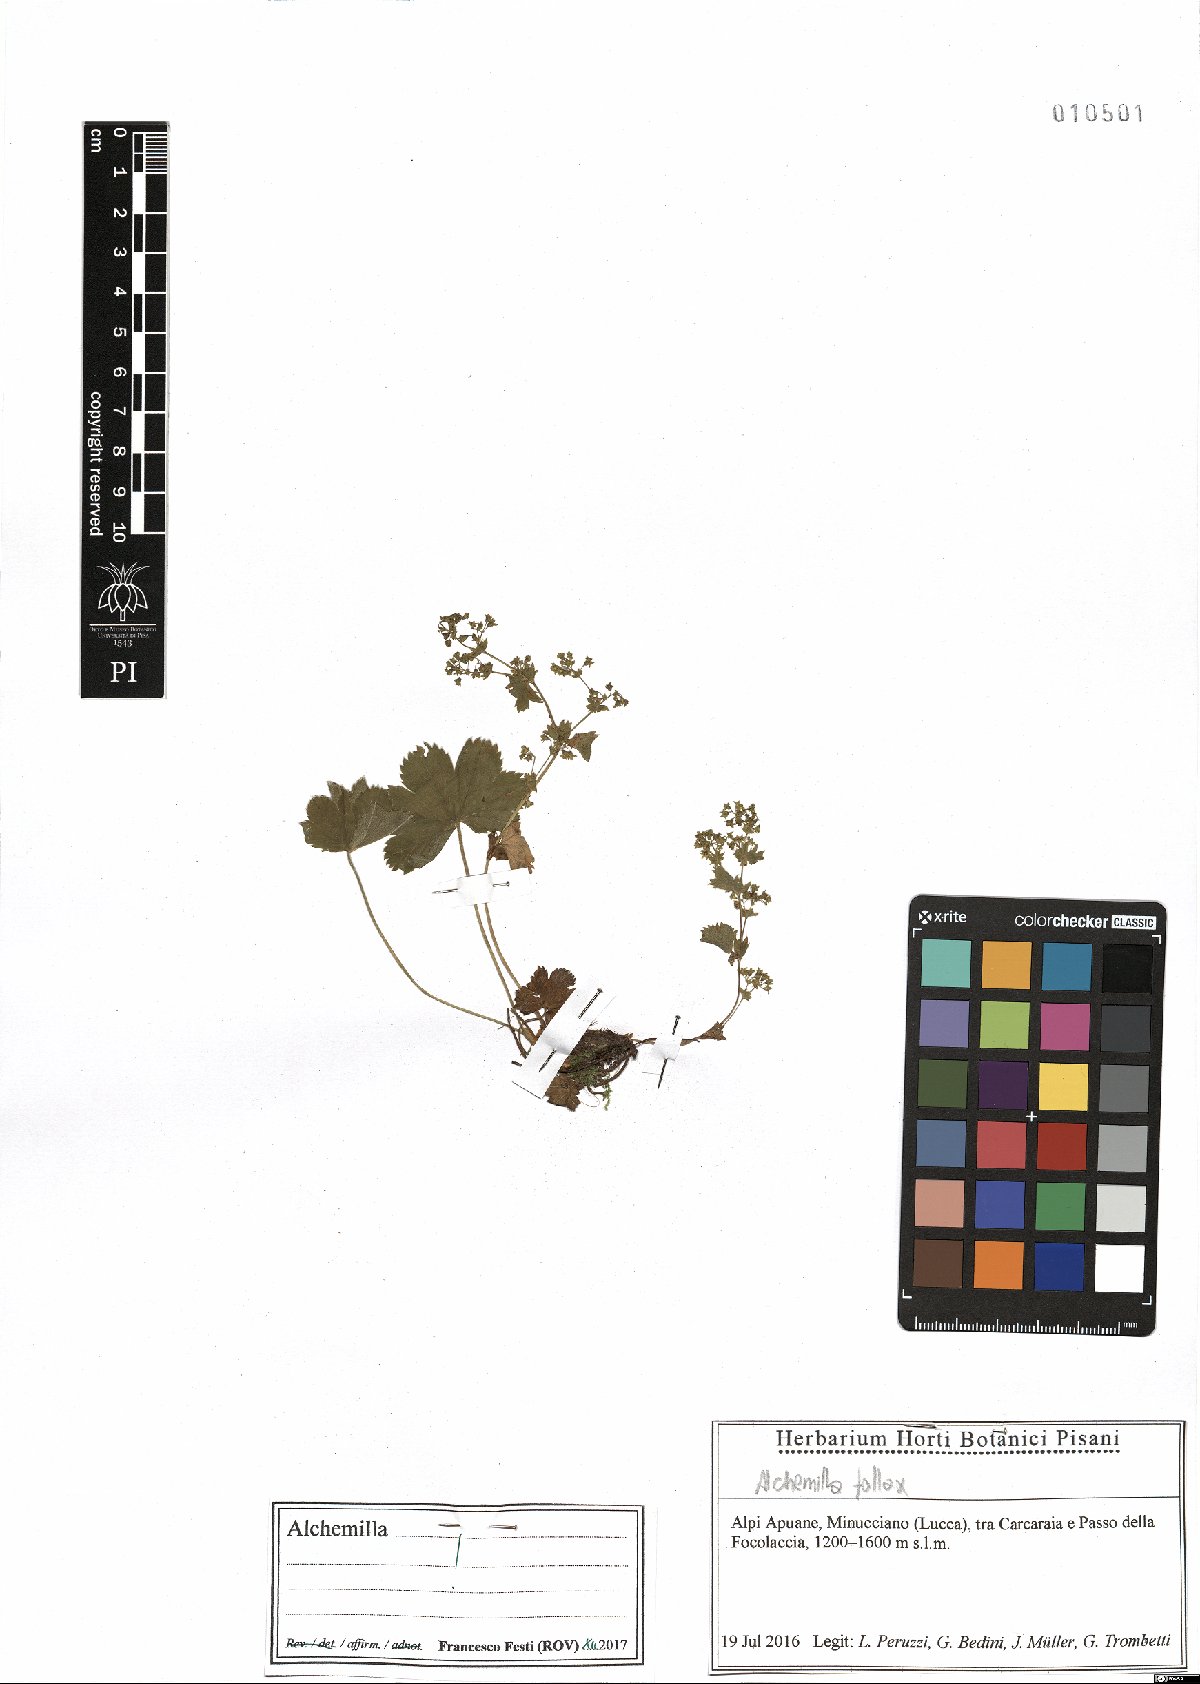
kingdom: Plantae
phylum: Tracheophyta
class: Magnoliopsida
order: Rosales
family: Rosaceae
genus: Alchemilla
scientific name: Alchemilla fallax
